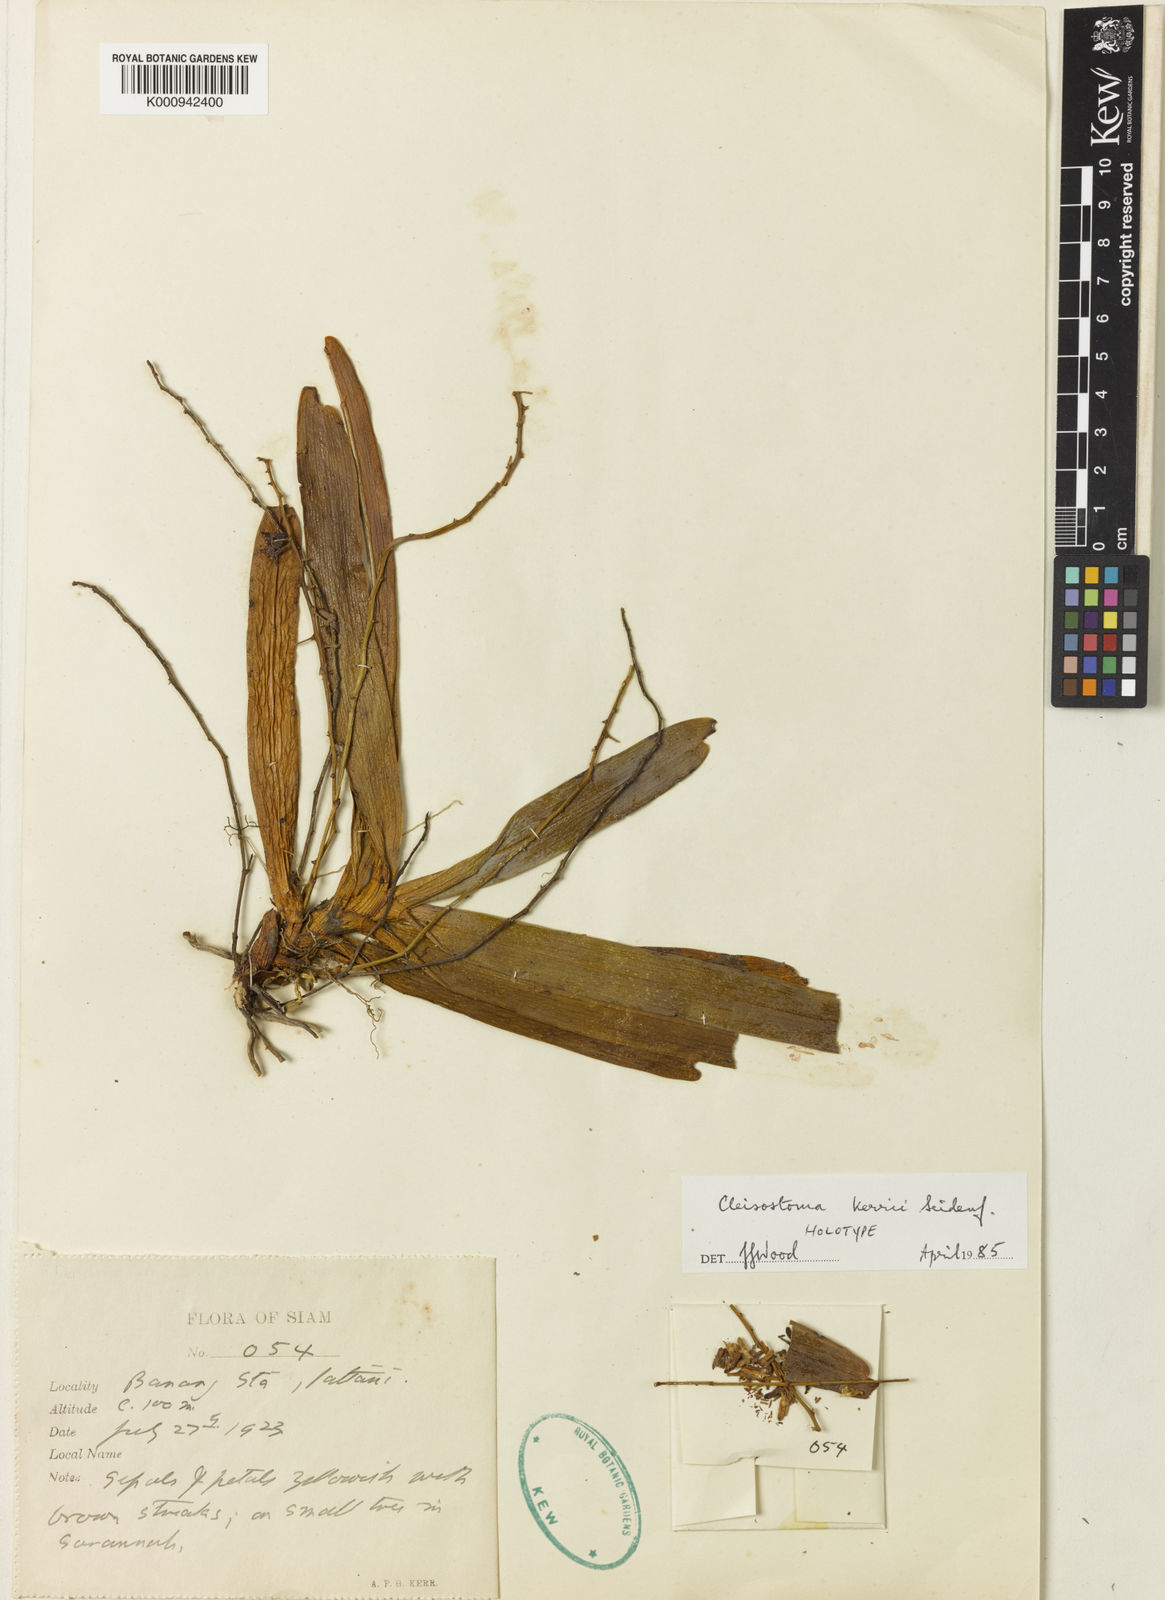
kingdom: Plantae
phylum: Tracheophyta
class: Liliopsida
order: Asparagales
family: Orchidaceae
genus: Cleisostoma
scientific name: Cleisostoma kerrii
